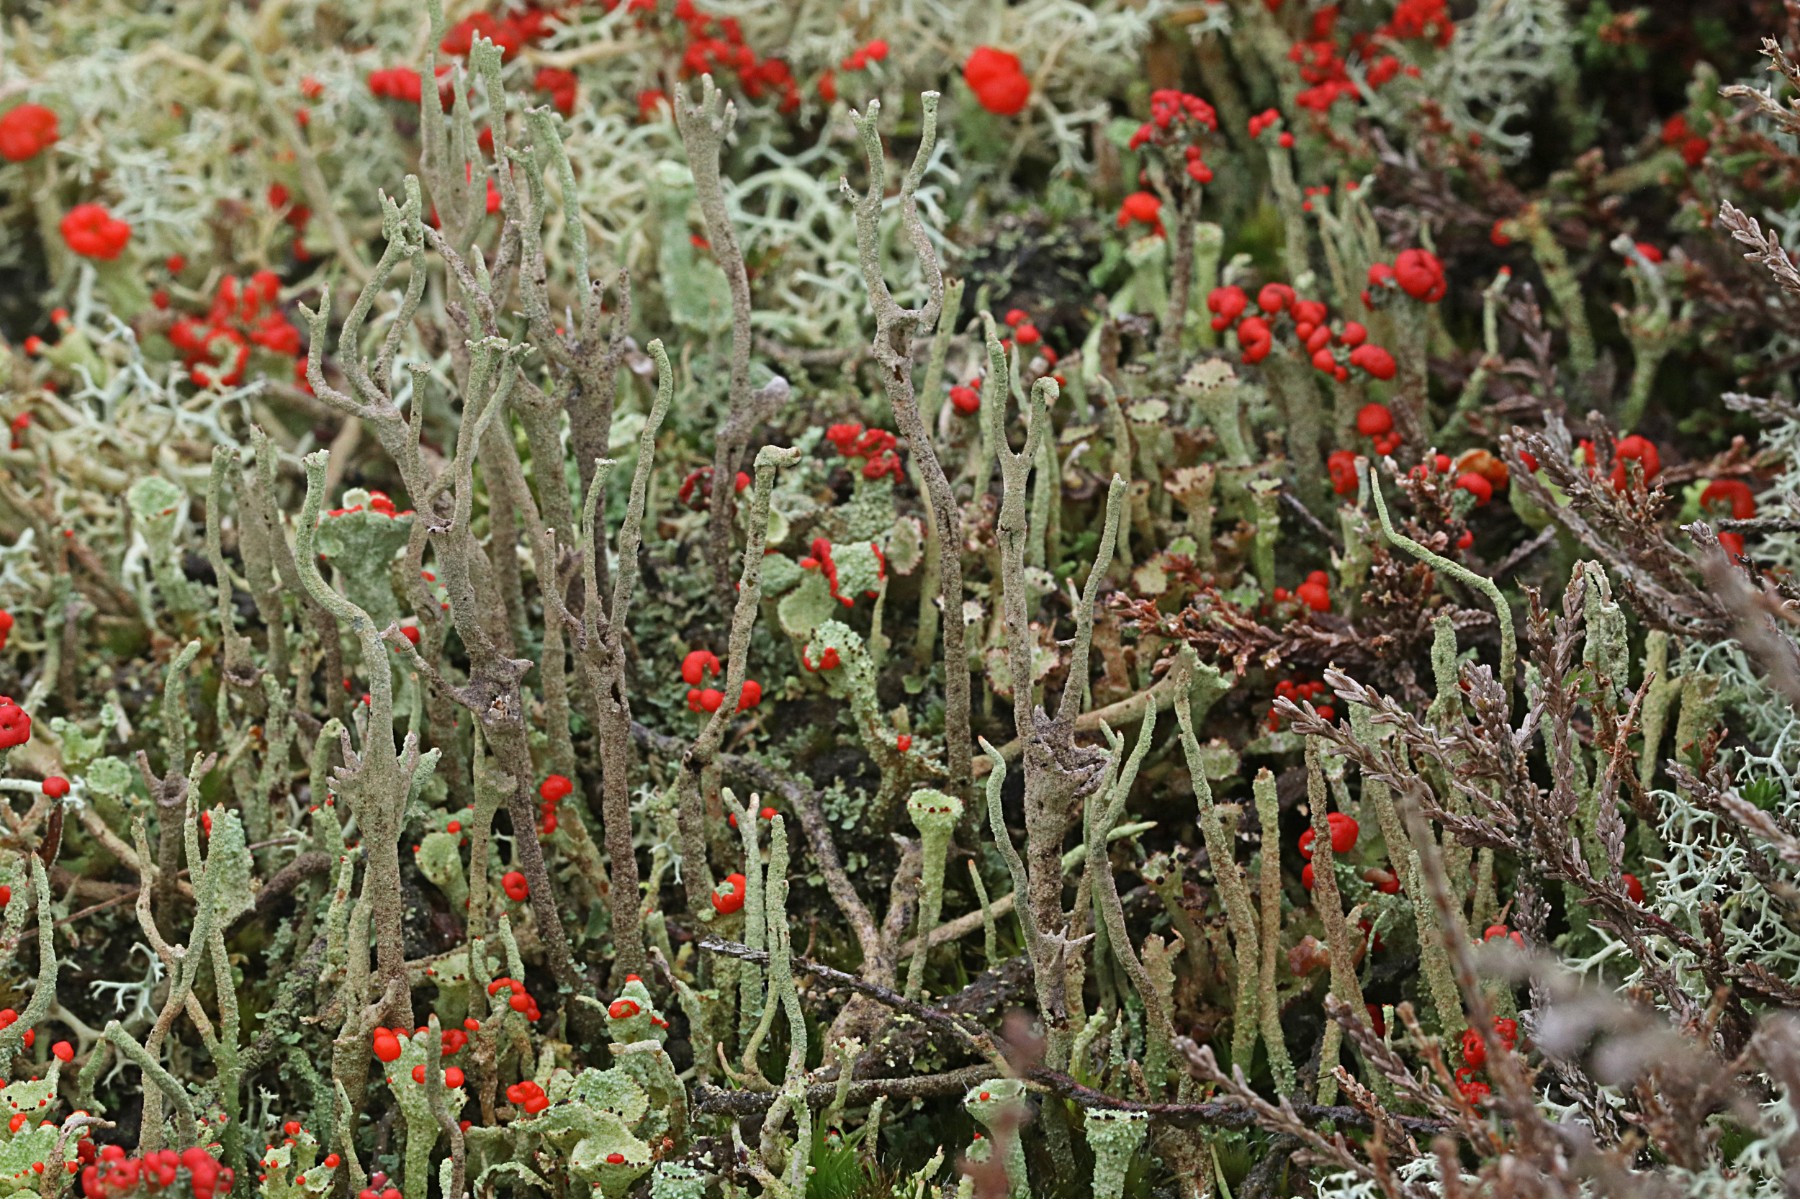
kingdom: Fungi
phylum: Ascomycota
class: Lecanoromycetes
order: Lecanorales
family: Cladoniaceae
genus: Cladonia
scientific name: Cladonia subulata
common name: spids bægerlav
